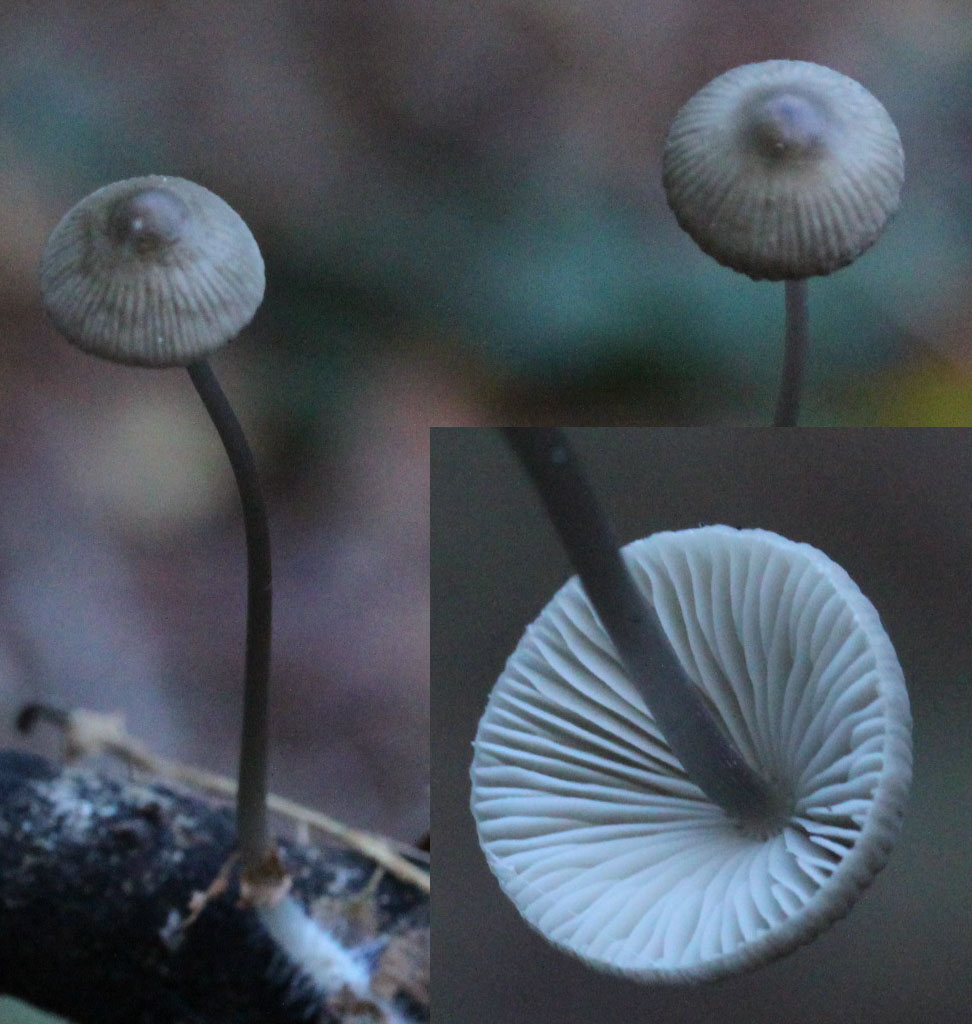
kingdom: Fungi
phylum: Basidiomycota
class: Agaricomycetes
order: Agaricales
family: Mycenaceae
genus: Mycena
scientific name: Mycena vitilis
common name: blankstokket huesvamp
